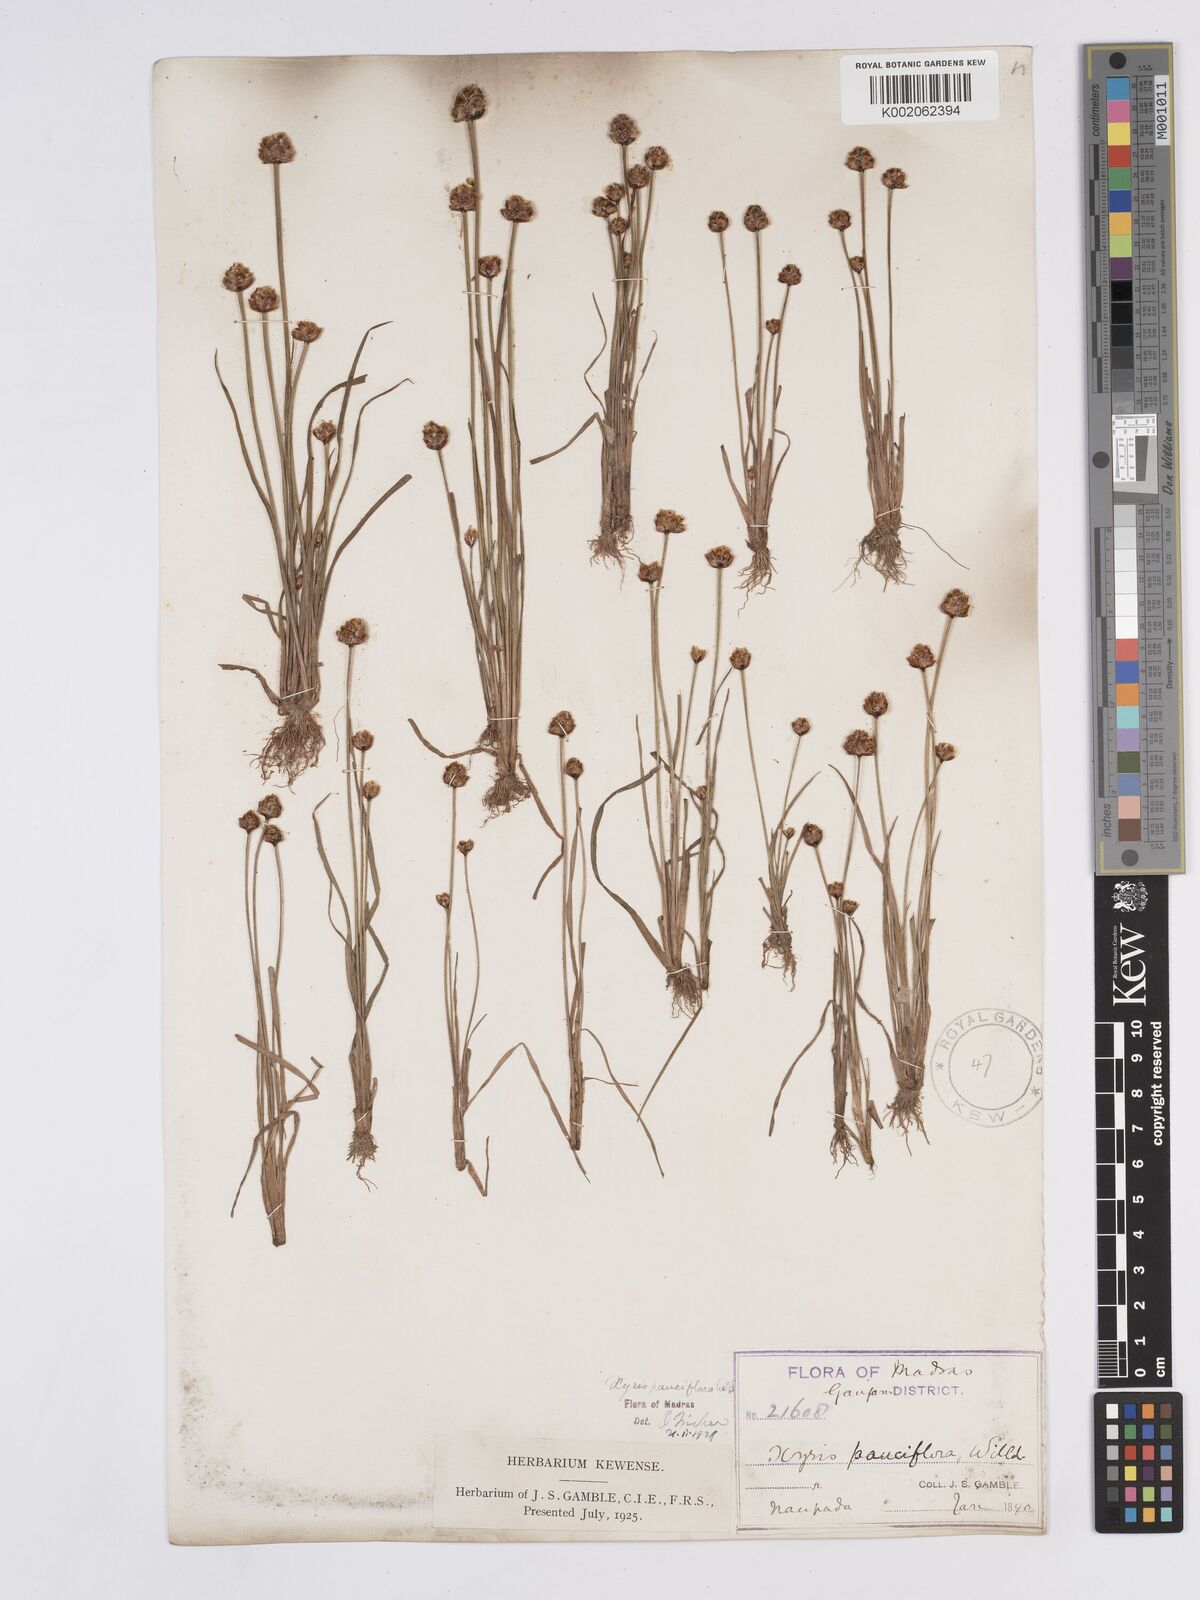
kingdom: Plantae
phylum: Tracheophyta
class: Liliopsida
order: Poales
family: Xyridaceae
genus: Xyris
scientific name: Xyris pauciflora
